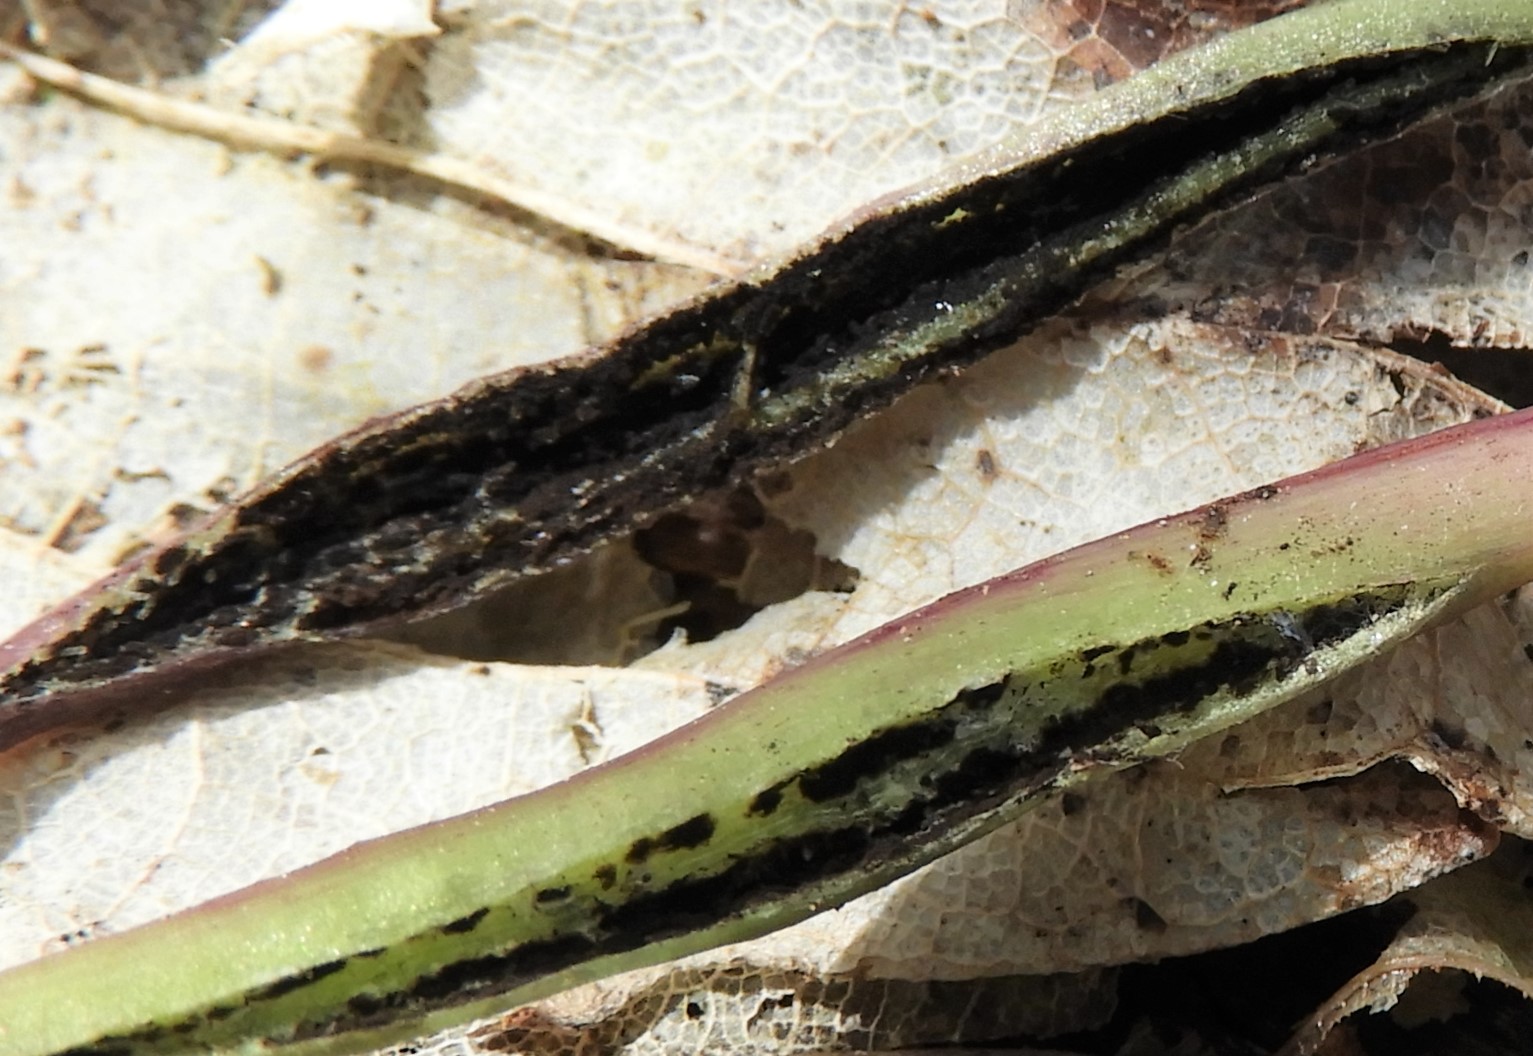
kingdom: Fungi
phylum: Basidiomycota
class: Ustilaginomycetes
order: Urocystidales
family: Urocystidaceae
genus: Urocystis
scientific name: Urocystis anemones
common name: anemone-brand
